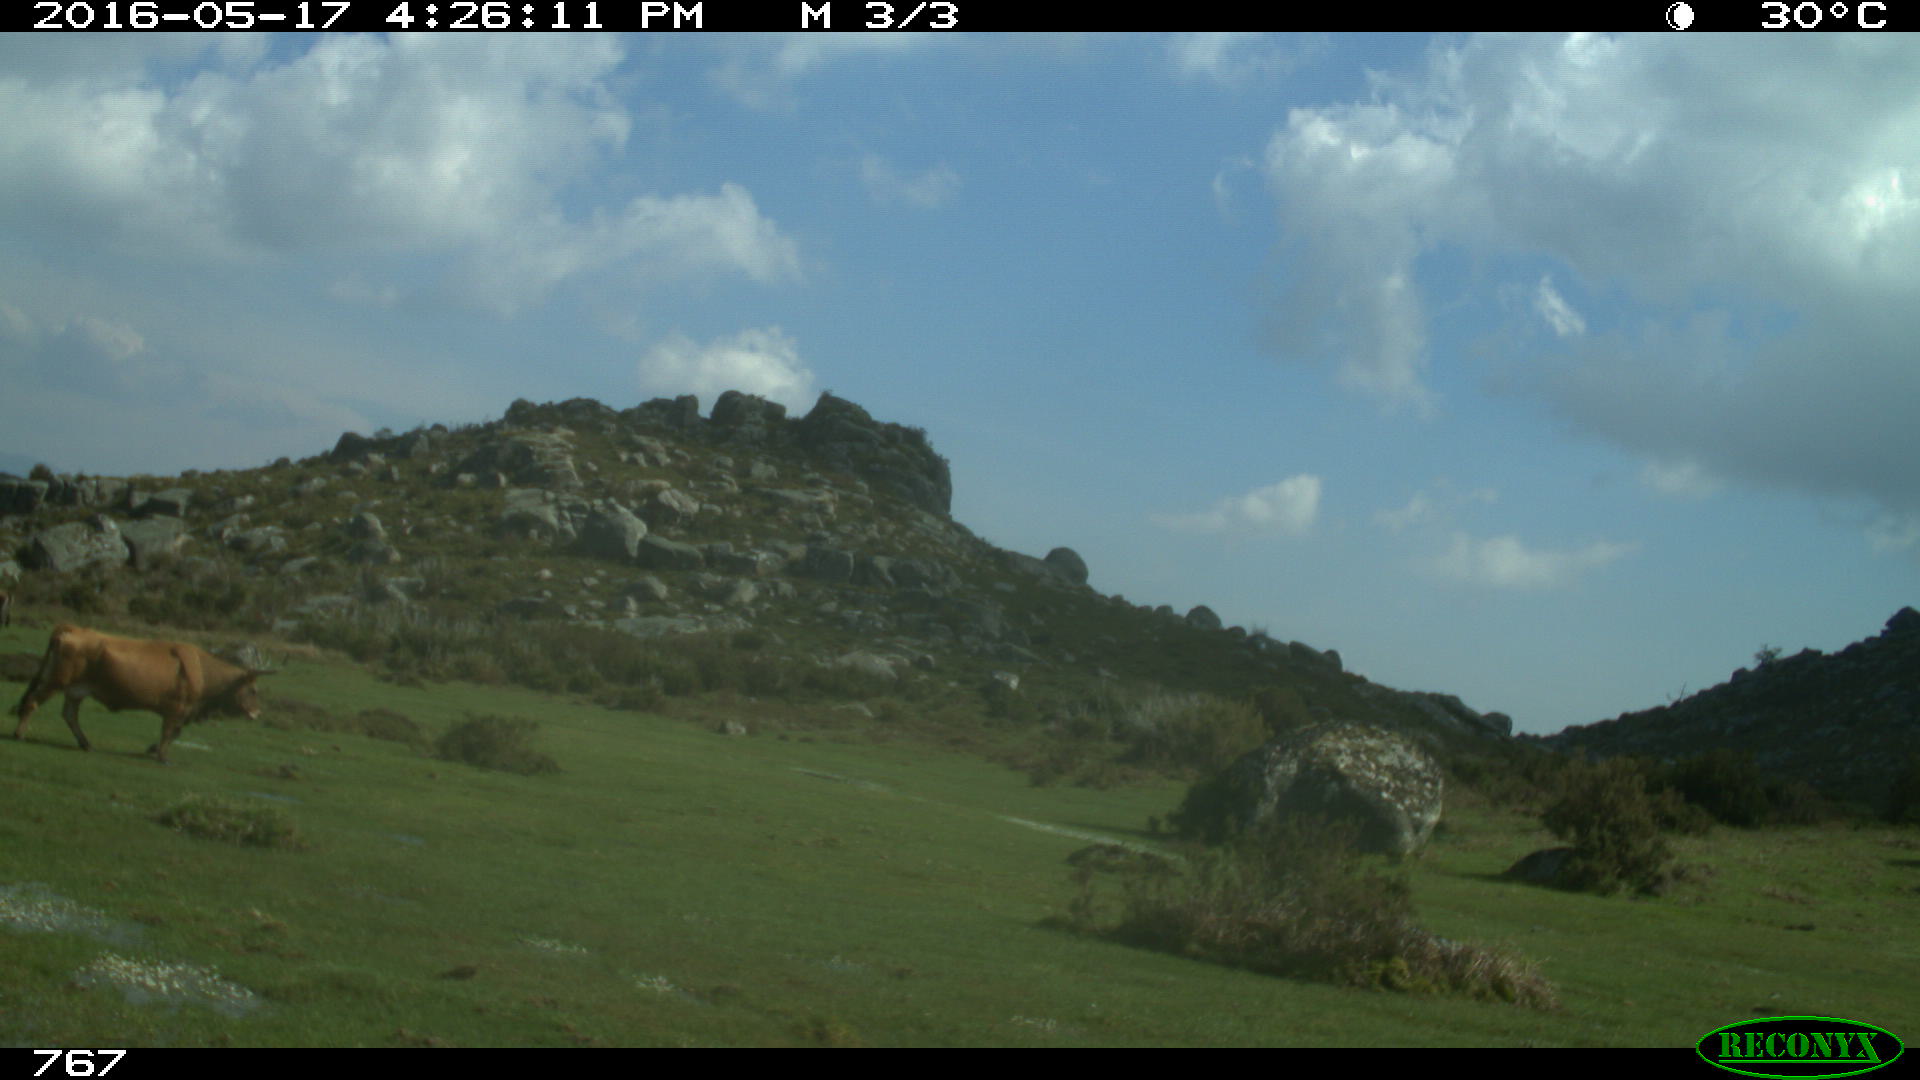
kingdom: Animalia
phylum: Chordata
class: Mammalia
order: Artiodactyla
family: Bovidae
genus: Bos
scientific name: Bos taurus
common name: Domesticated cattle
